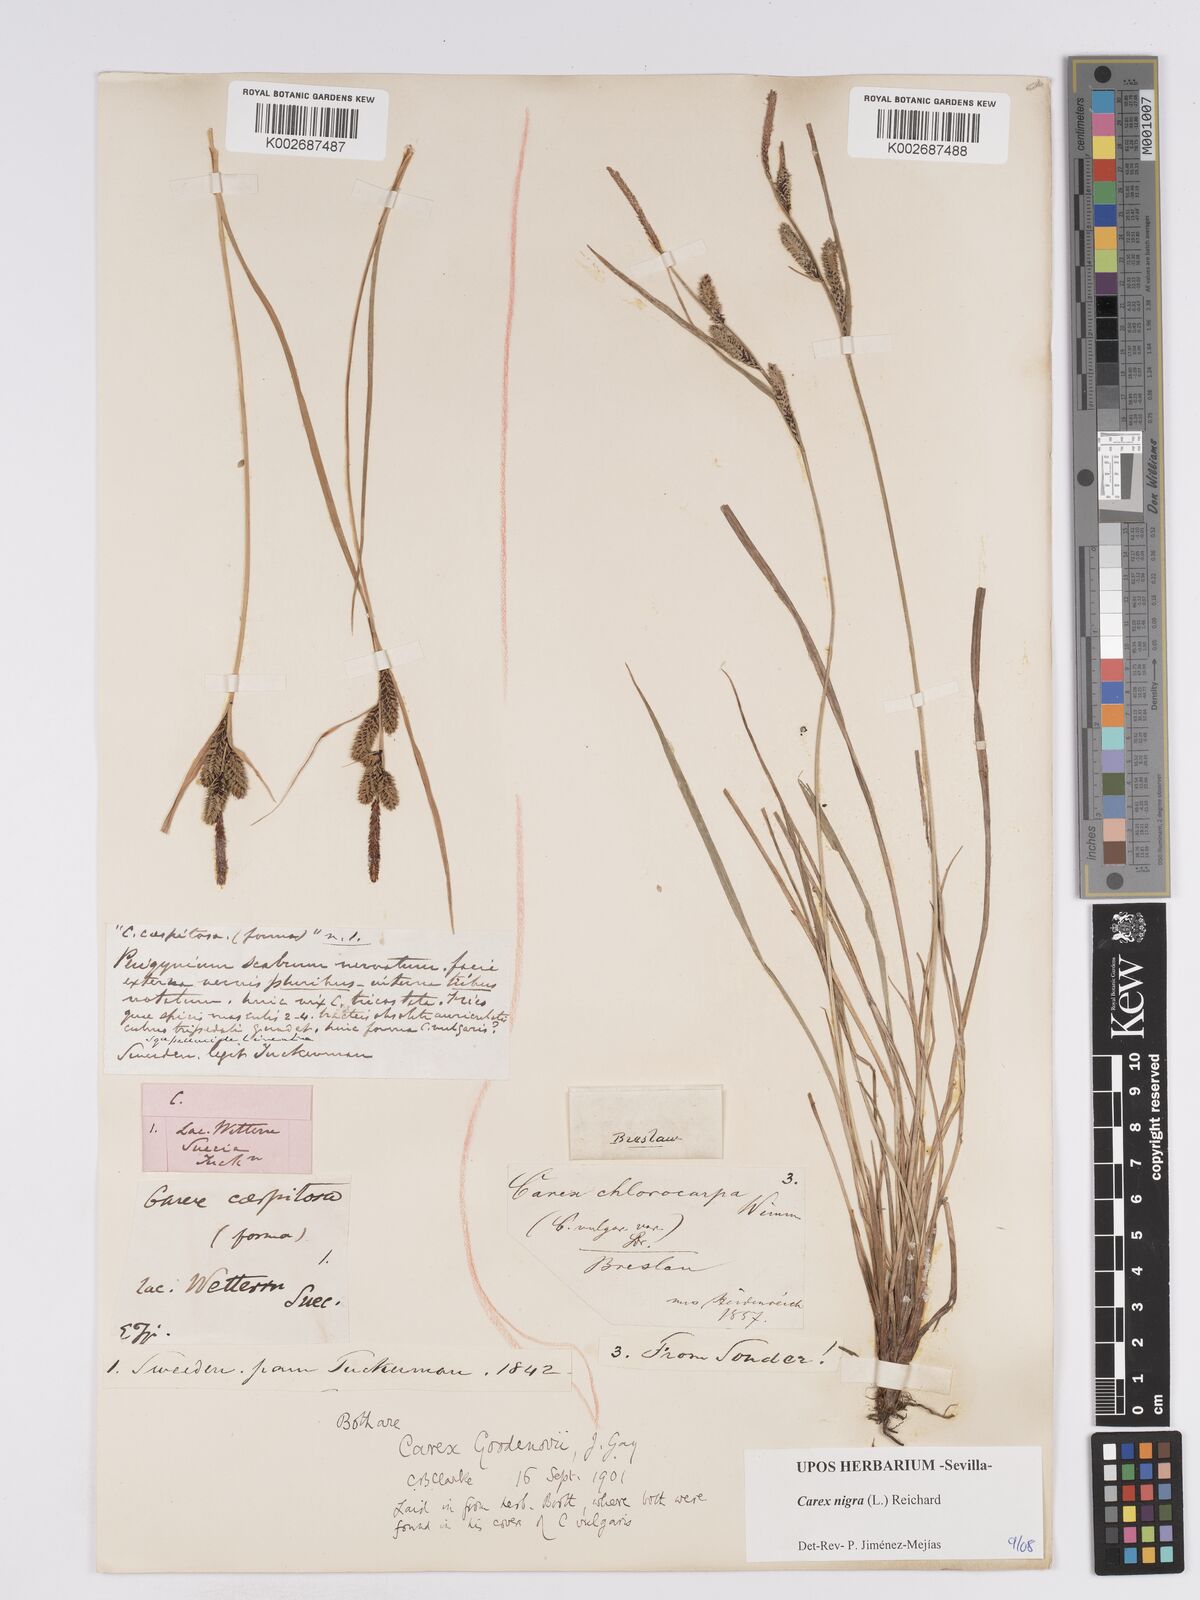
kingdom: Plantae
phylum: Tracheophyta
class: Liliopsida
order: Poales
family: Cyperaceae
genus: Carex
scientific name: Carex nigra
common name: Common sedge
